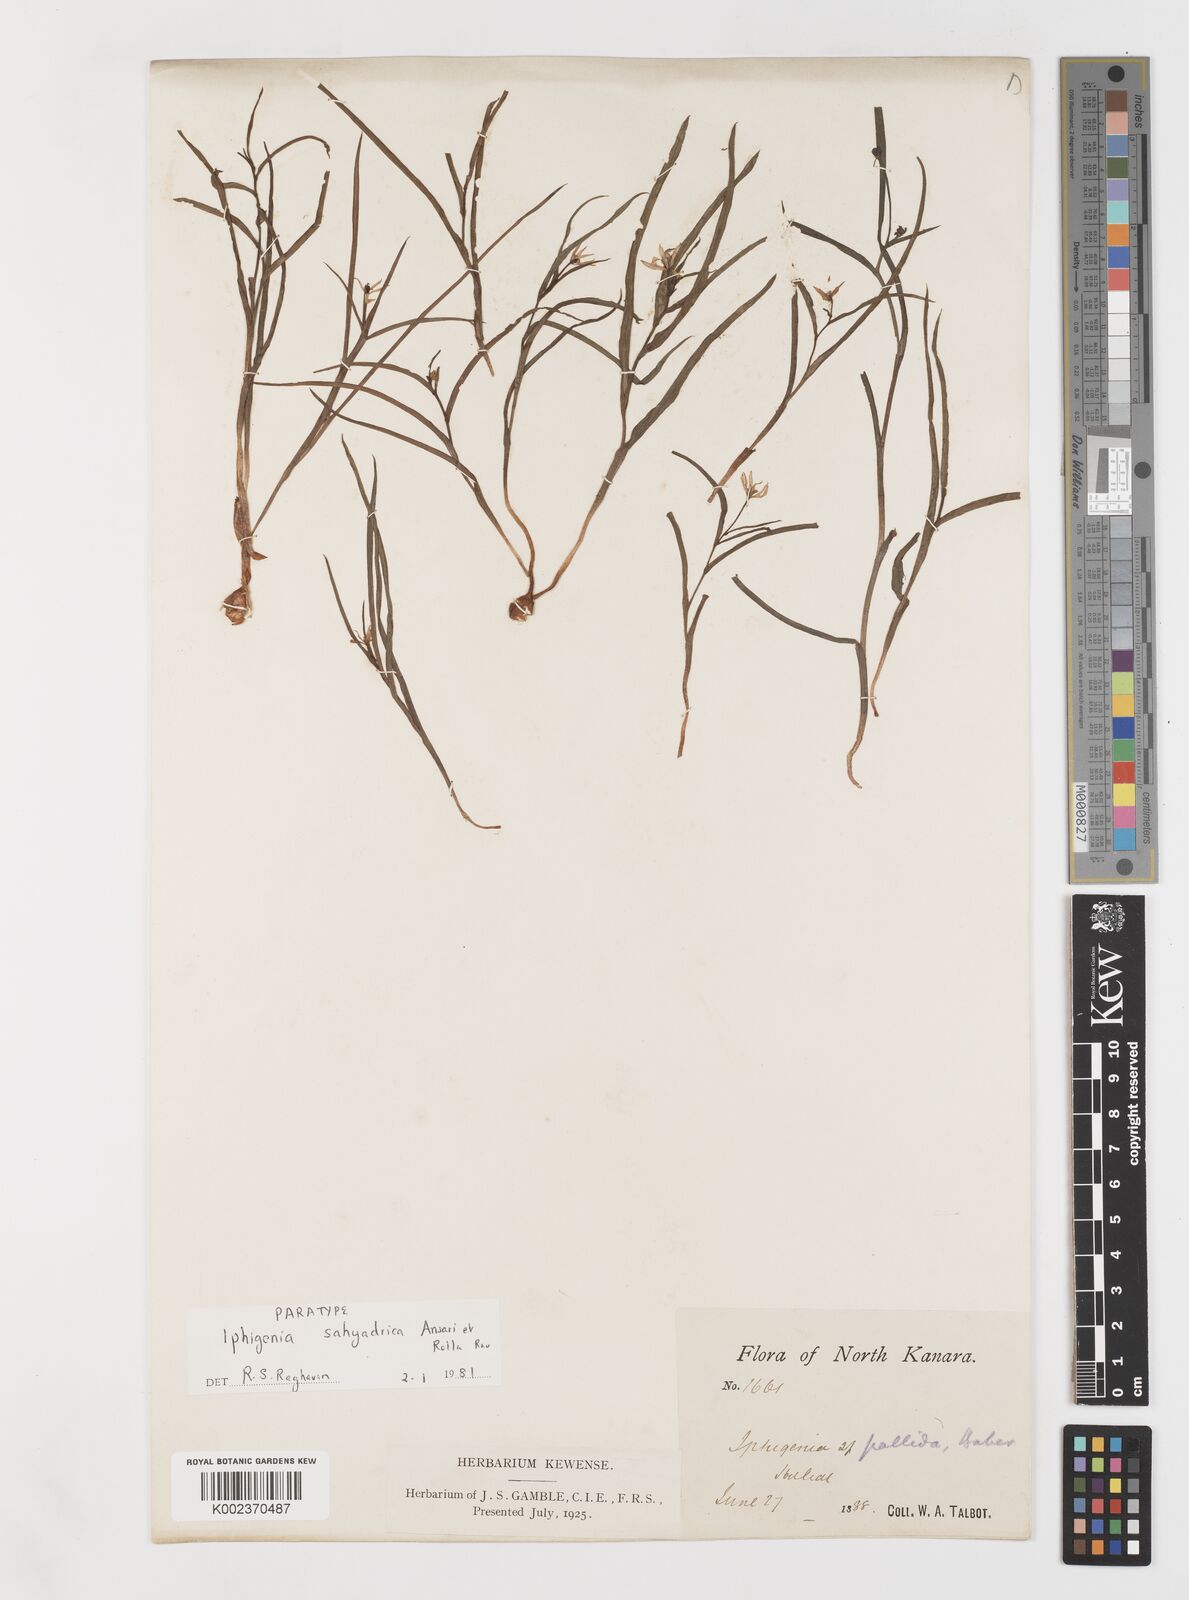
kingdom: Plantae
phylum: Tracheophyta
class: Liliopsida
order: Liliales
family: Colchicaceae
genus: Iphigenia
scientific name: Iphigenia pallida
